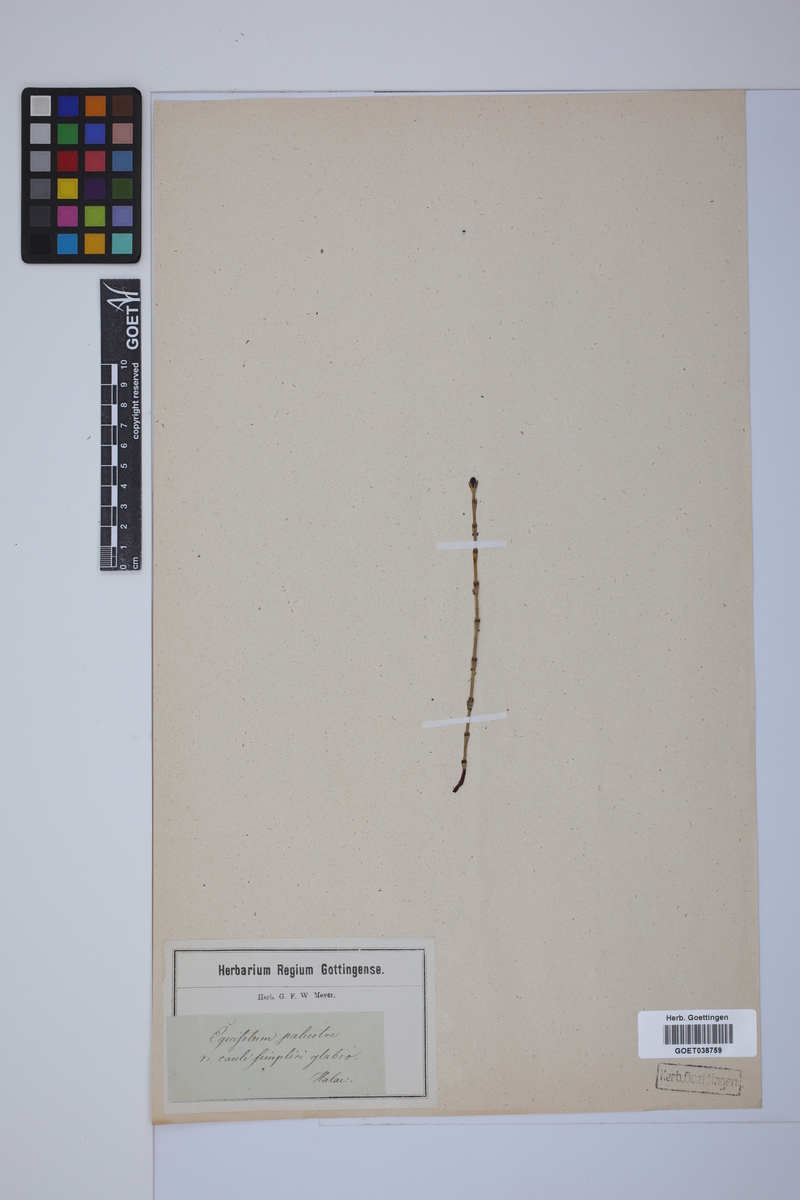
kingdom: Plantae
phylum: Tracheophyta
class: Polypodiopsida
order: Equisetales
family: Equisetaceae
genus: Equisetum
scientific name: Equisetum palustre
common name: Marsh horsetail
